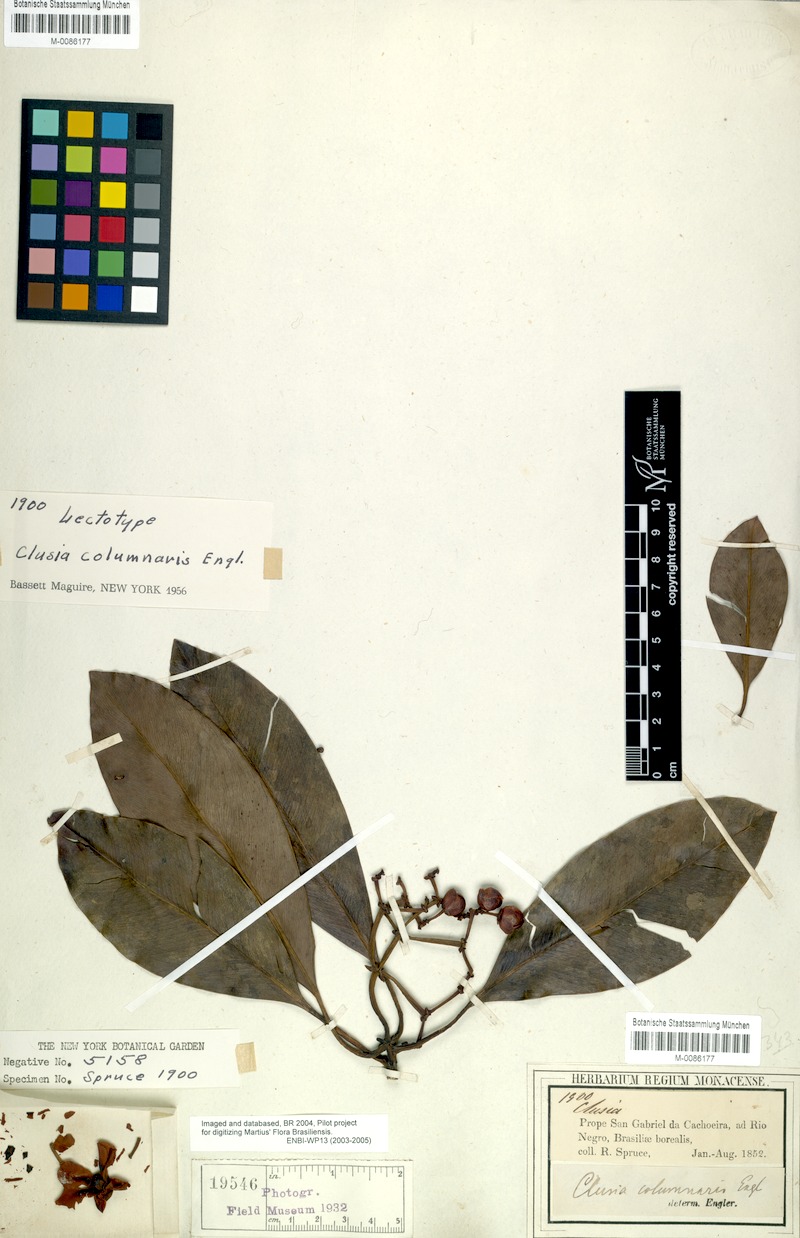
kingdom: Plantae
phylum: Tracheophyta
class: Magnoliopsida
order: Malpighiales
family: Clusiaceae
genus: Clusia
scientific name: Clusia columnaris
